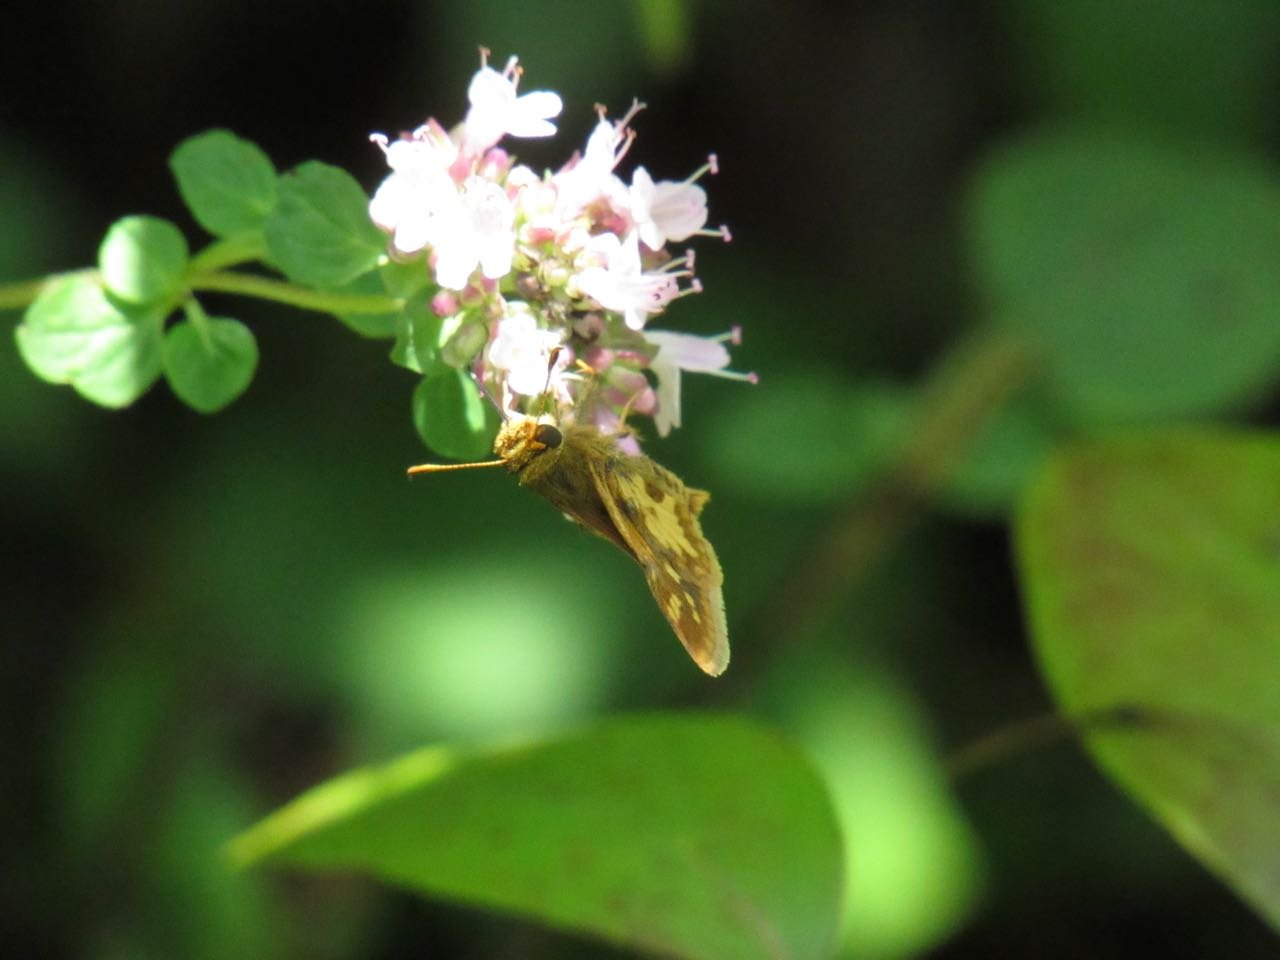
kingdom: Animalia
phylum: Arthropoda
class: Insecta
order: Lepidoptera
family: Hesperiidae
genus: Polites
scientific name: Polites coras
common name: Peck's Skipper
